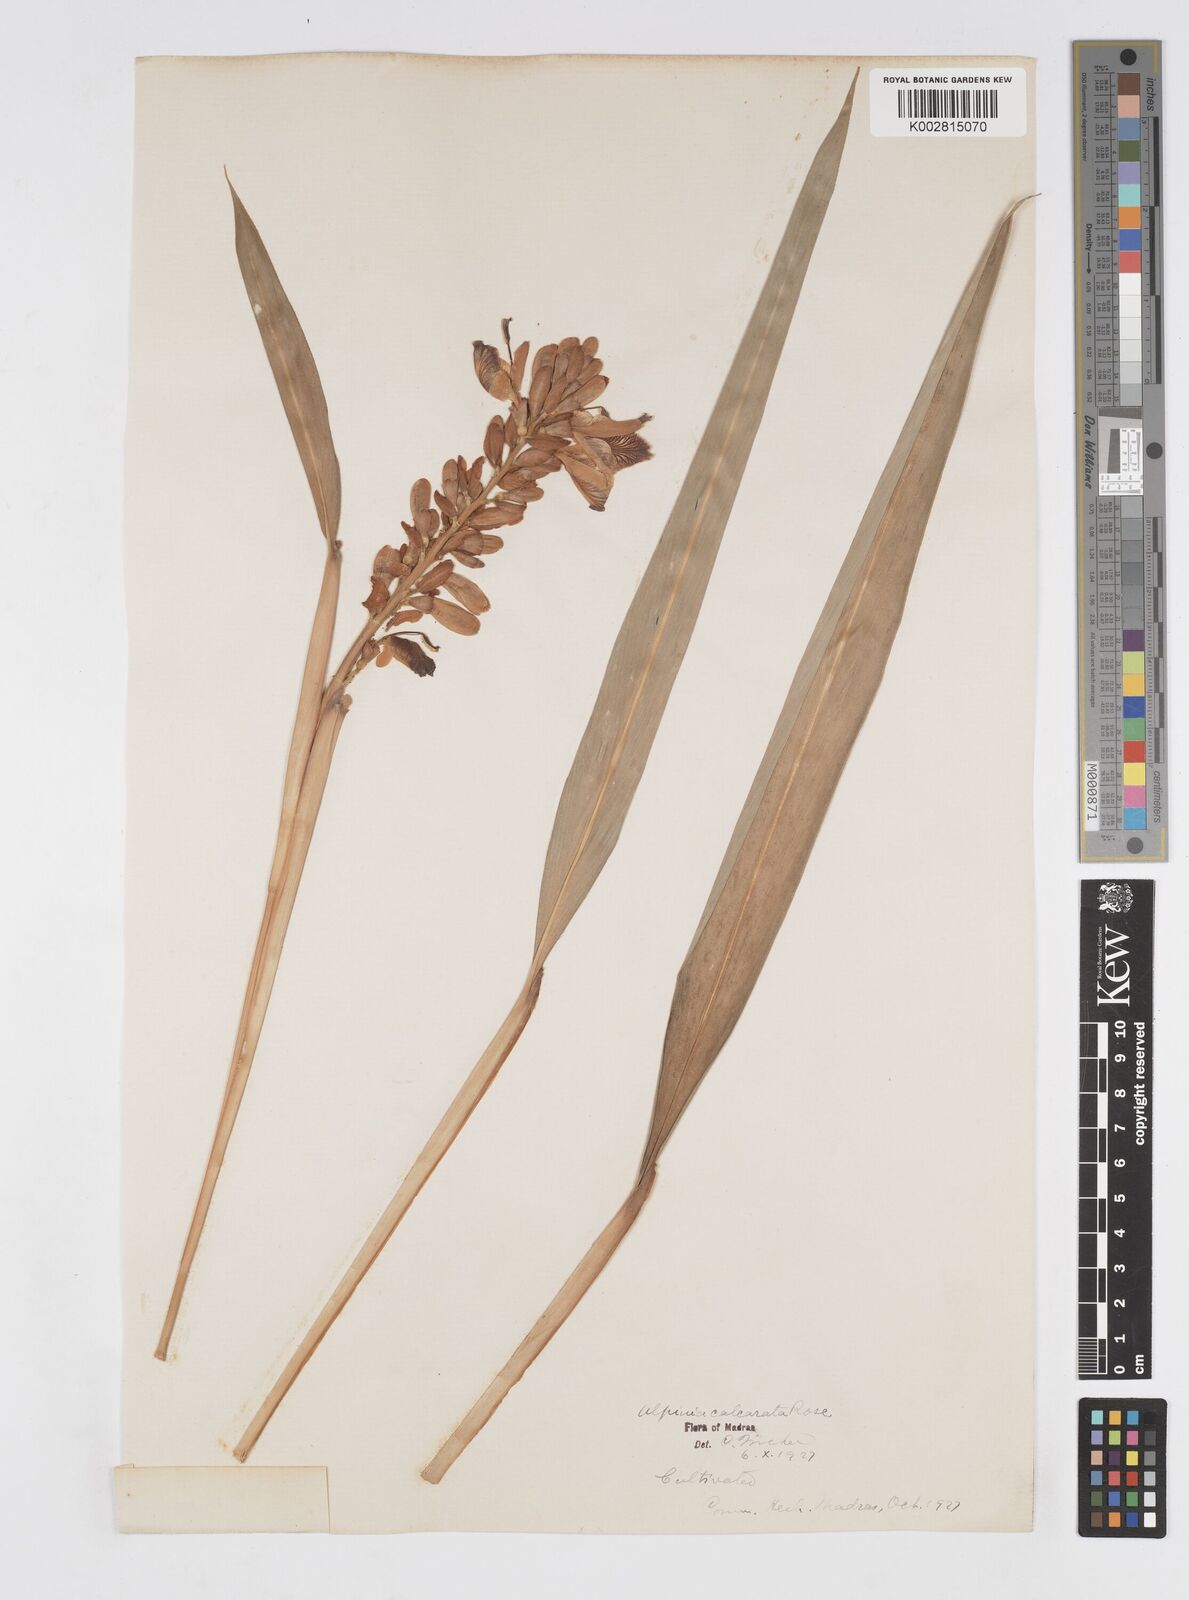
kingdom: Plantae
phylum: Tracheophyta
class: Liliopsida
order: Zingiberales
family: Zingiberaceae
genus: Alpinia
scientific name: Alpinia calcarata
